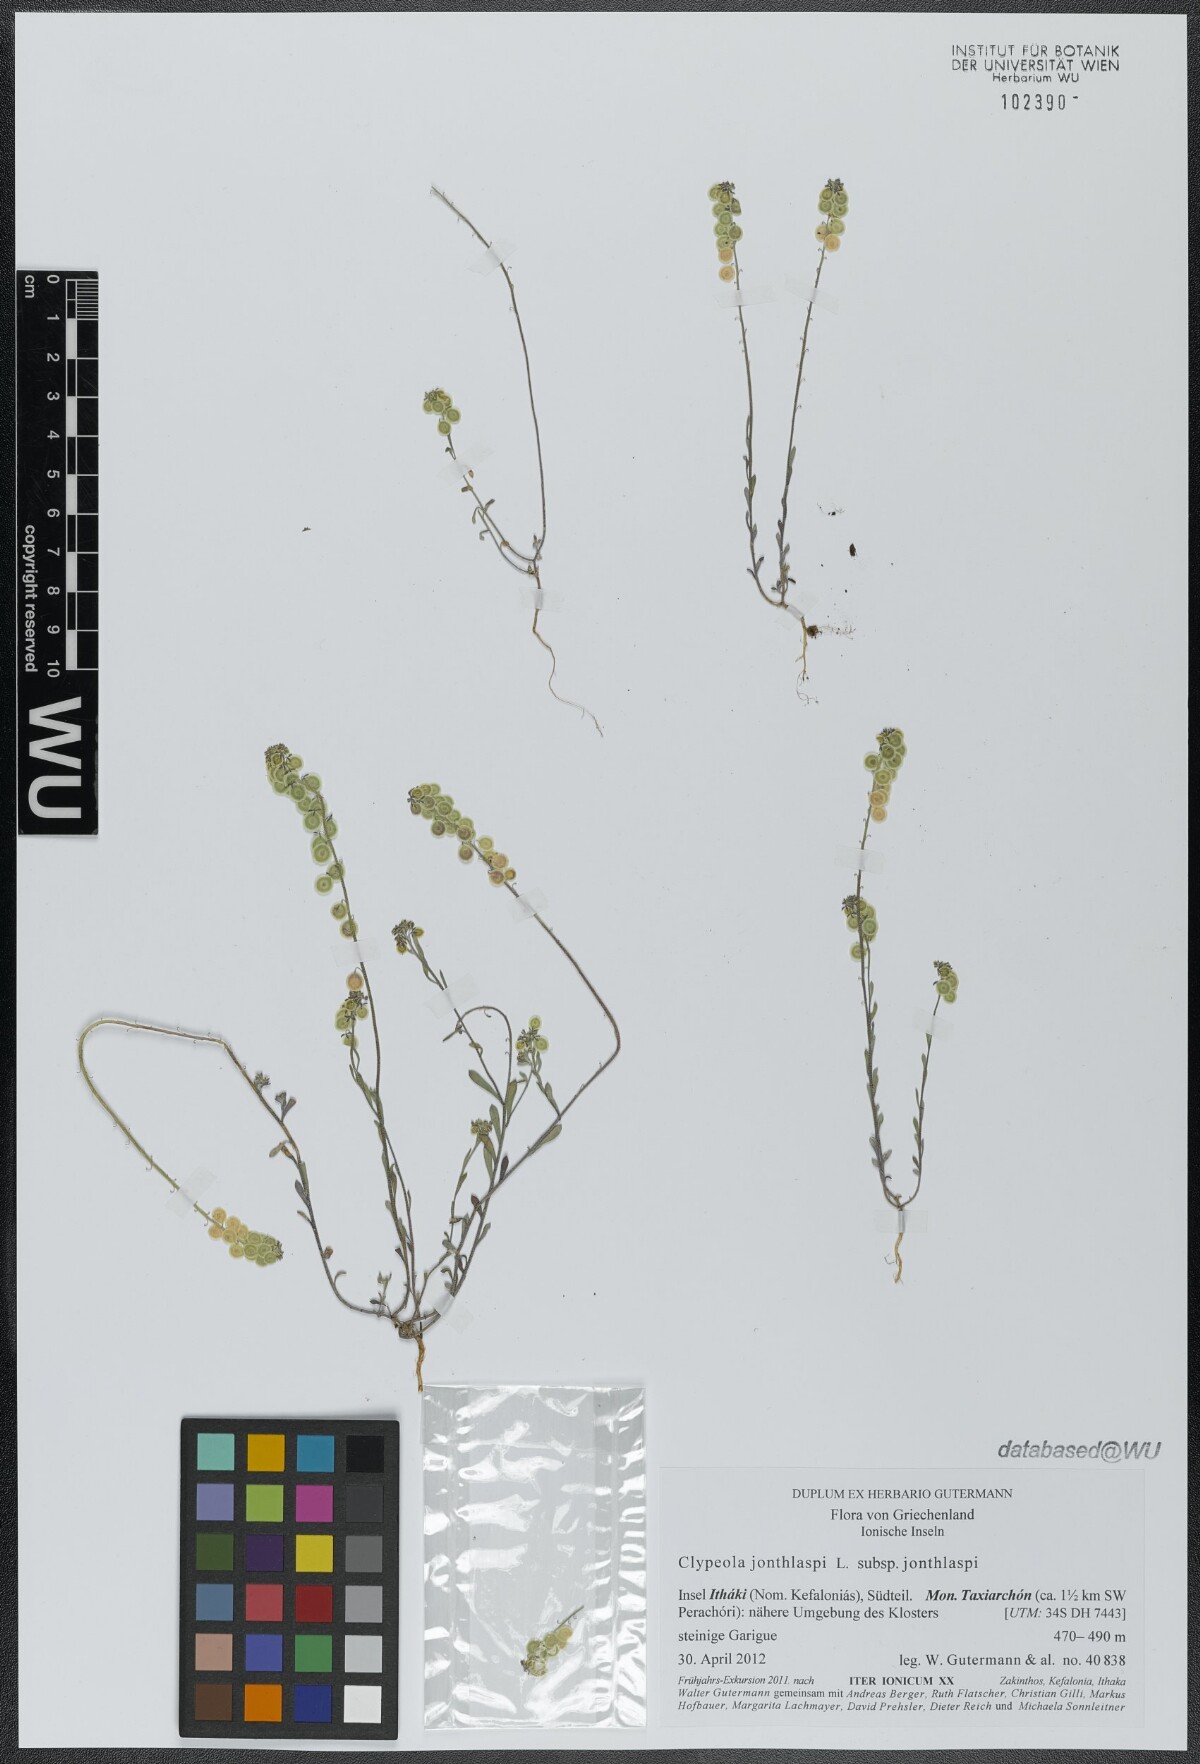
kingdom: Plantae
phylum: Tracheophyta
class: Magnoliopsida
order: Brassicales
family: Brassicaceae
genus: Clypeola
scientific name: Clypeola jonthlaspi
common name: Disk cress
